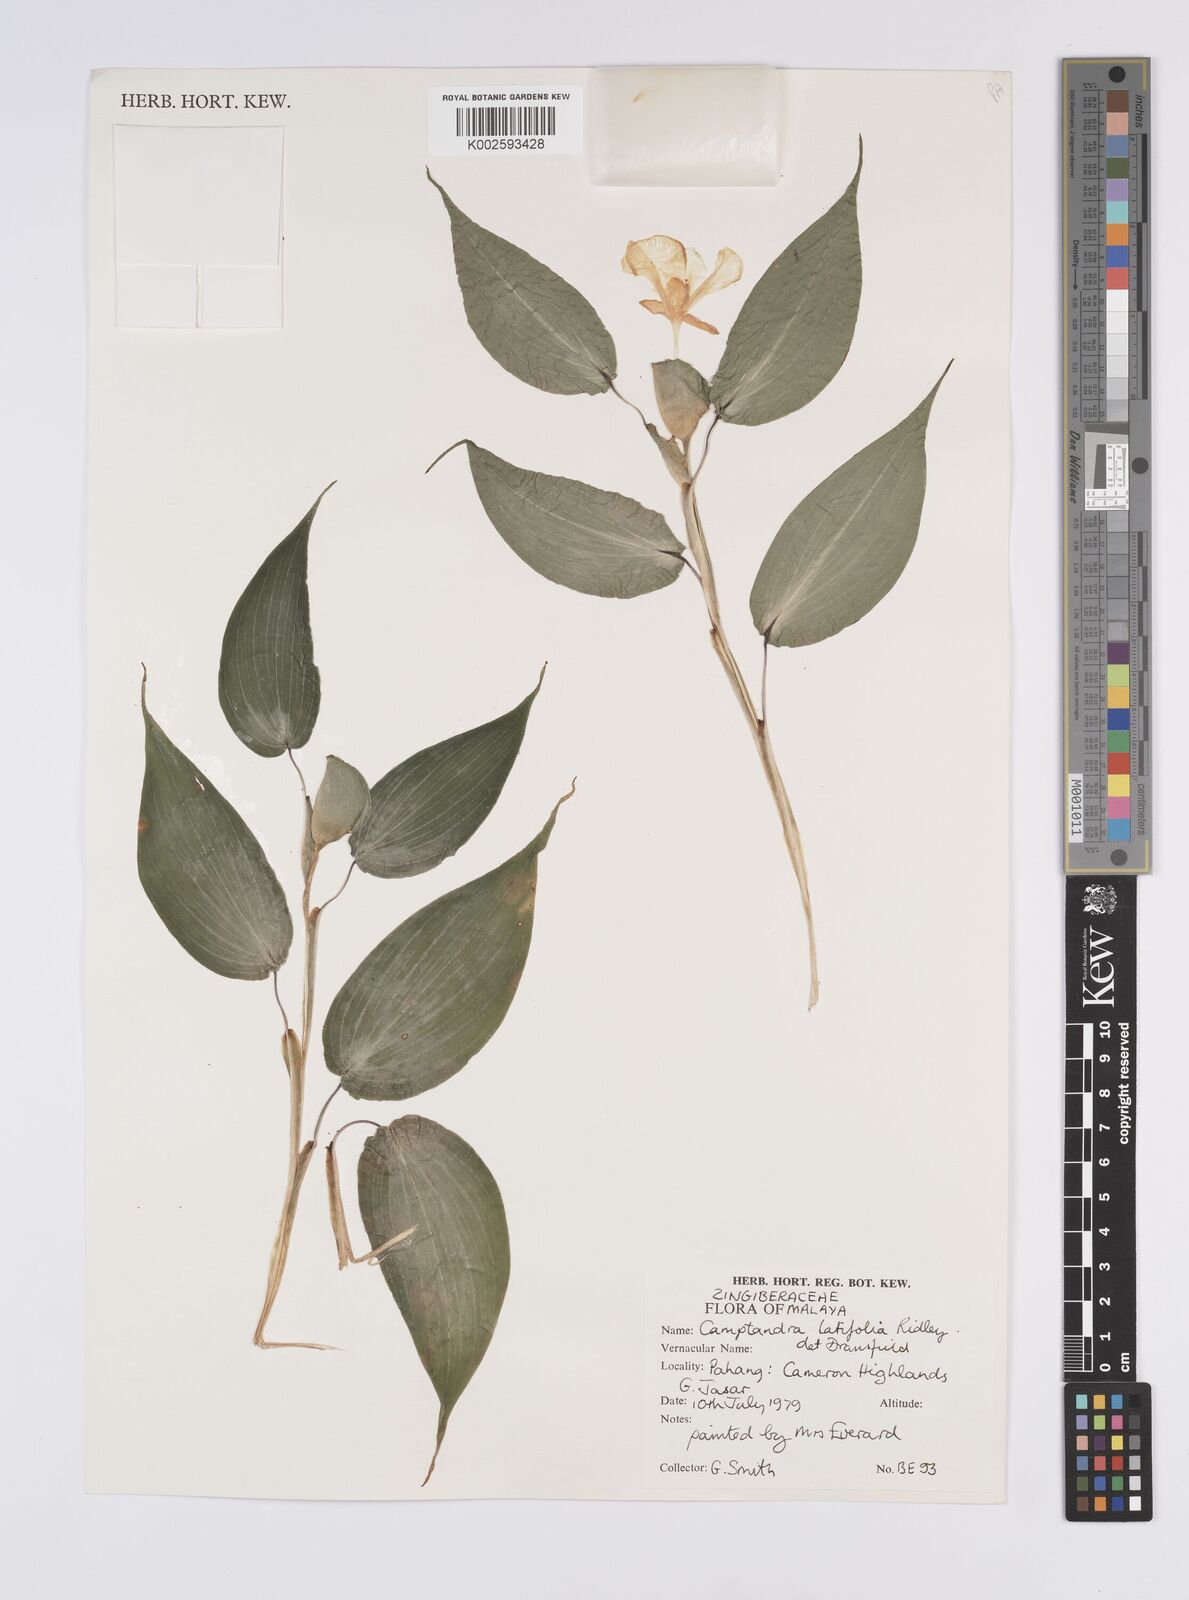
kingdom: Plantae
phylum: Tracheophyta
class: Liliopsida
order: Zingiberales
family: Zingiberaceae
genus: Camptandra
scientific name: Camptandra latifolia
